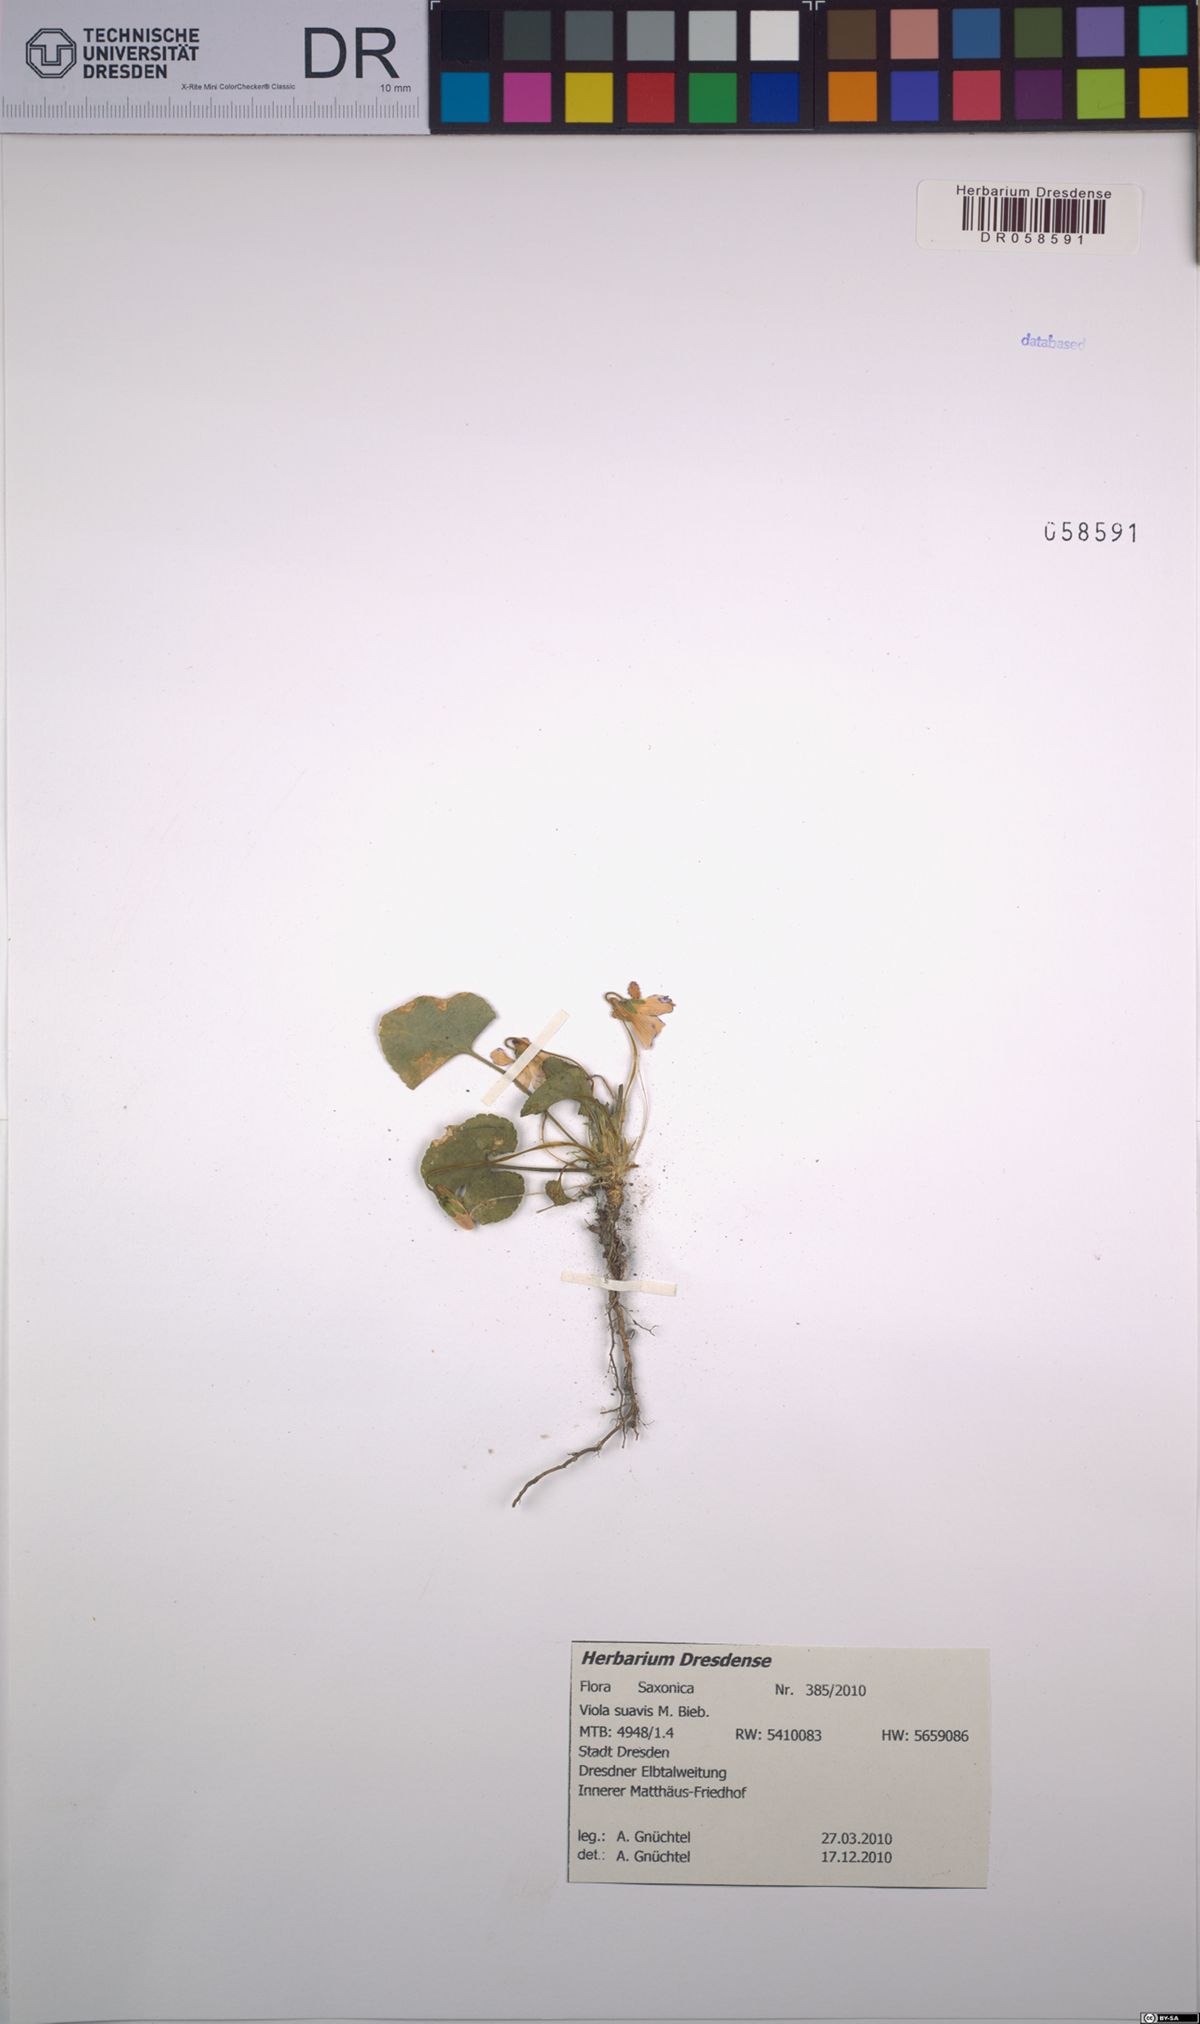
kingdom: Plantae
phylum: Tracheophyta
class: Magnoliopsida
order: Malpighiales
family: Violaceae
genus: Viola
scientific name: Viola suavis
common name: Russian violet
